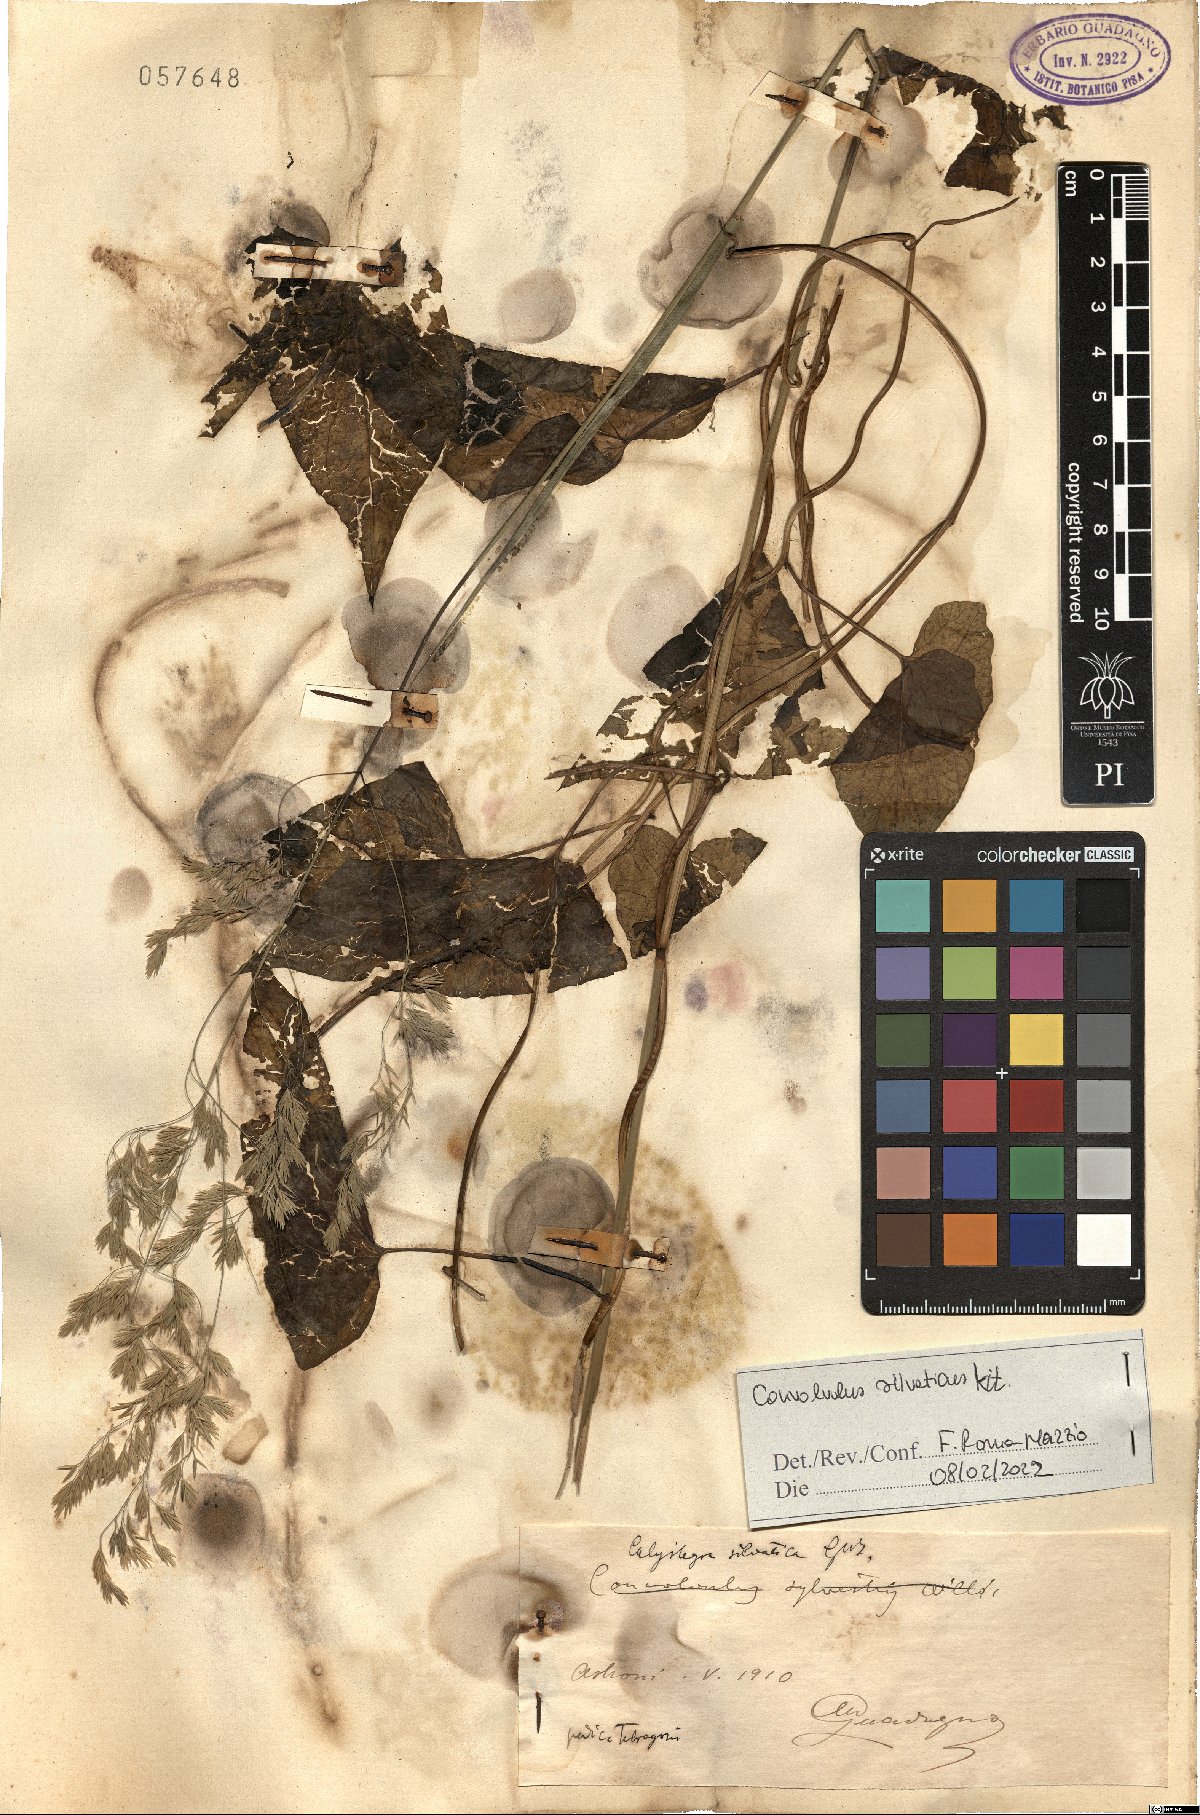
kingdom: Plantae
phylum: Tracheophyta
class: Magnoliopsida
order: Solanales
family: Convolvulaceae
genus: Calystegia
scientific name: Calystegia silvatica
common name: Large bindweed
